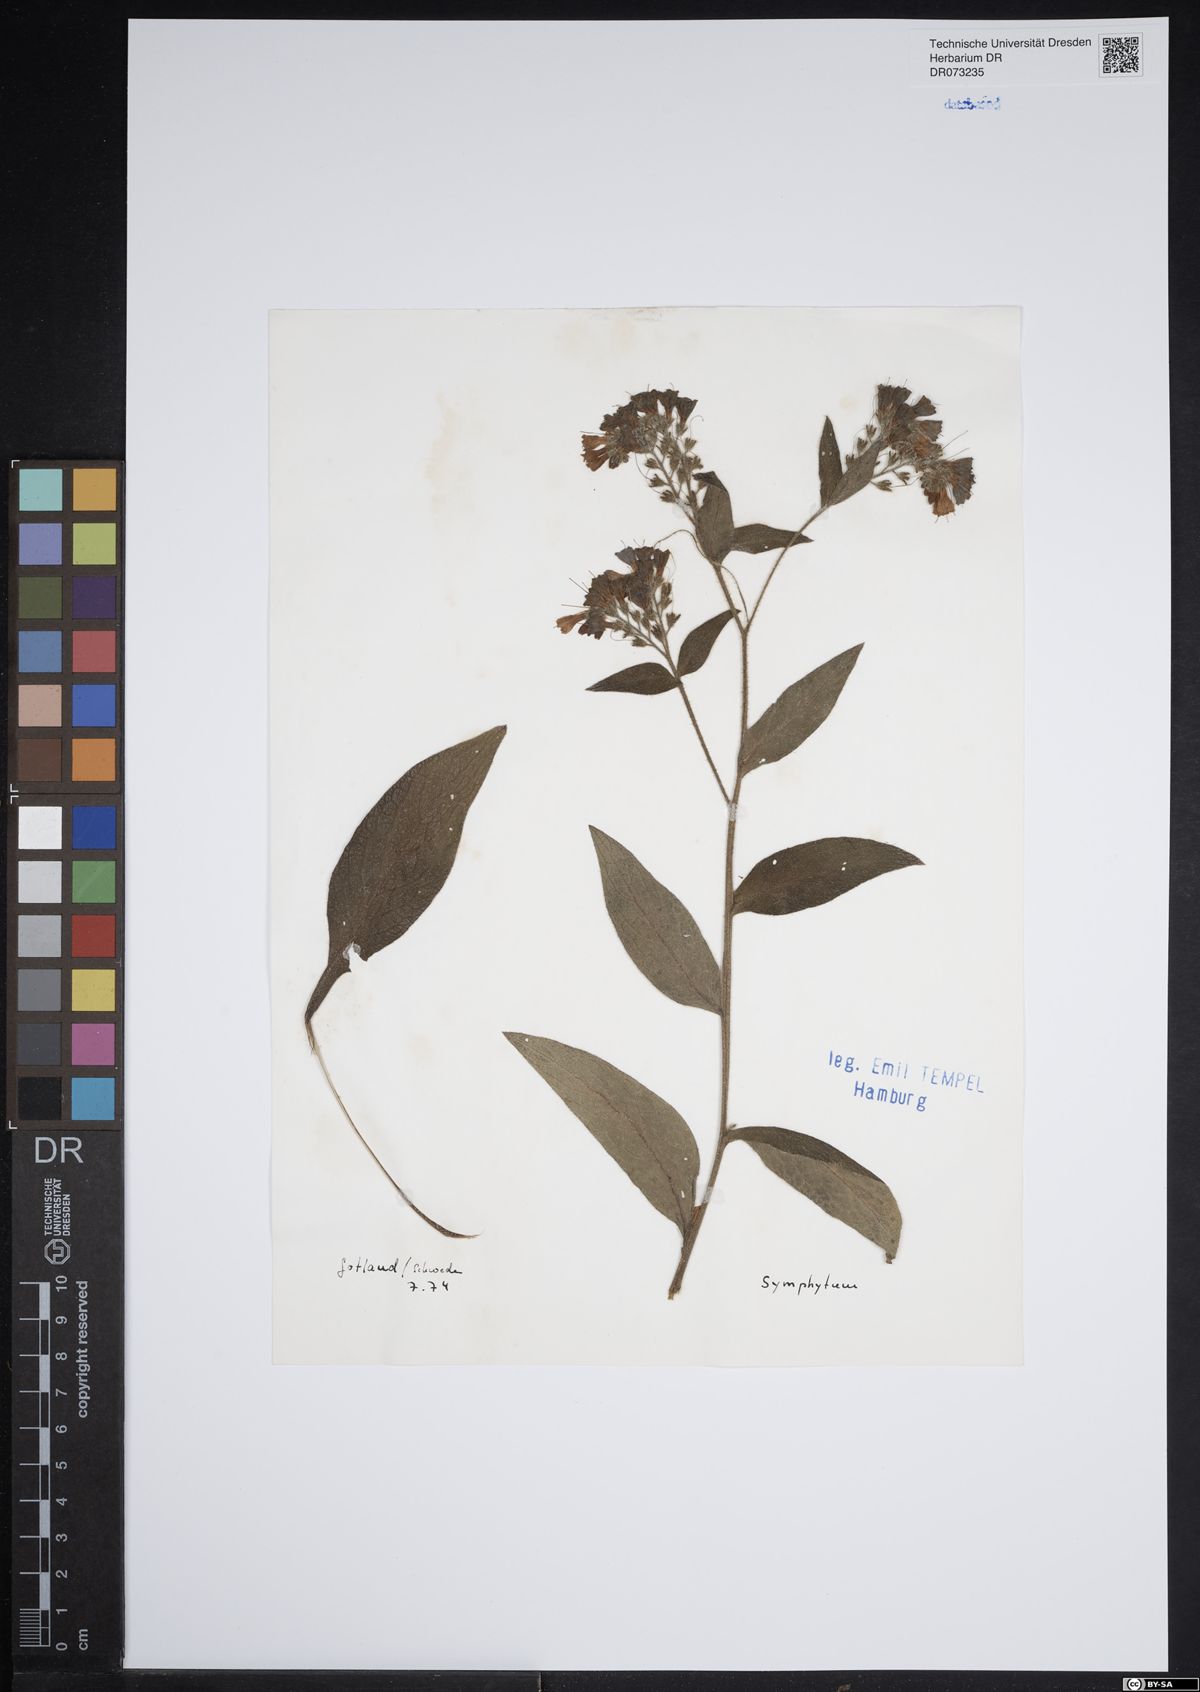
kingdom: Plantae
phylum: Tracheophyta
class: Magnoliopsida
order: Boraginales
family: Boraginaceae
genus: Symphytum
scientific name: Symphytum
